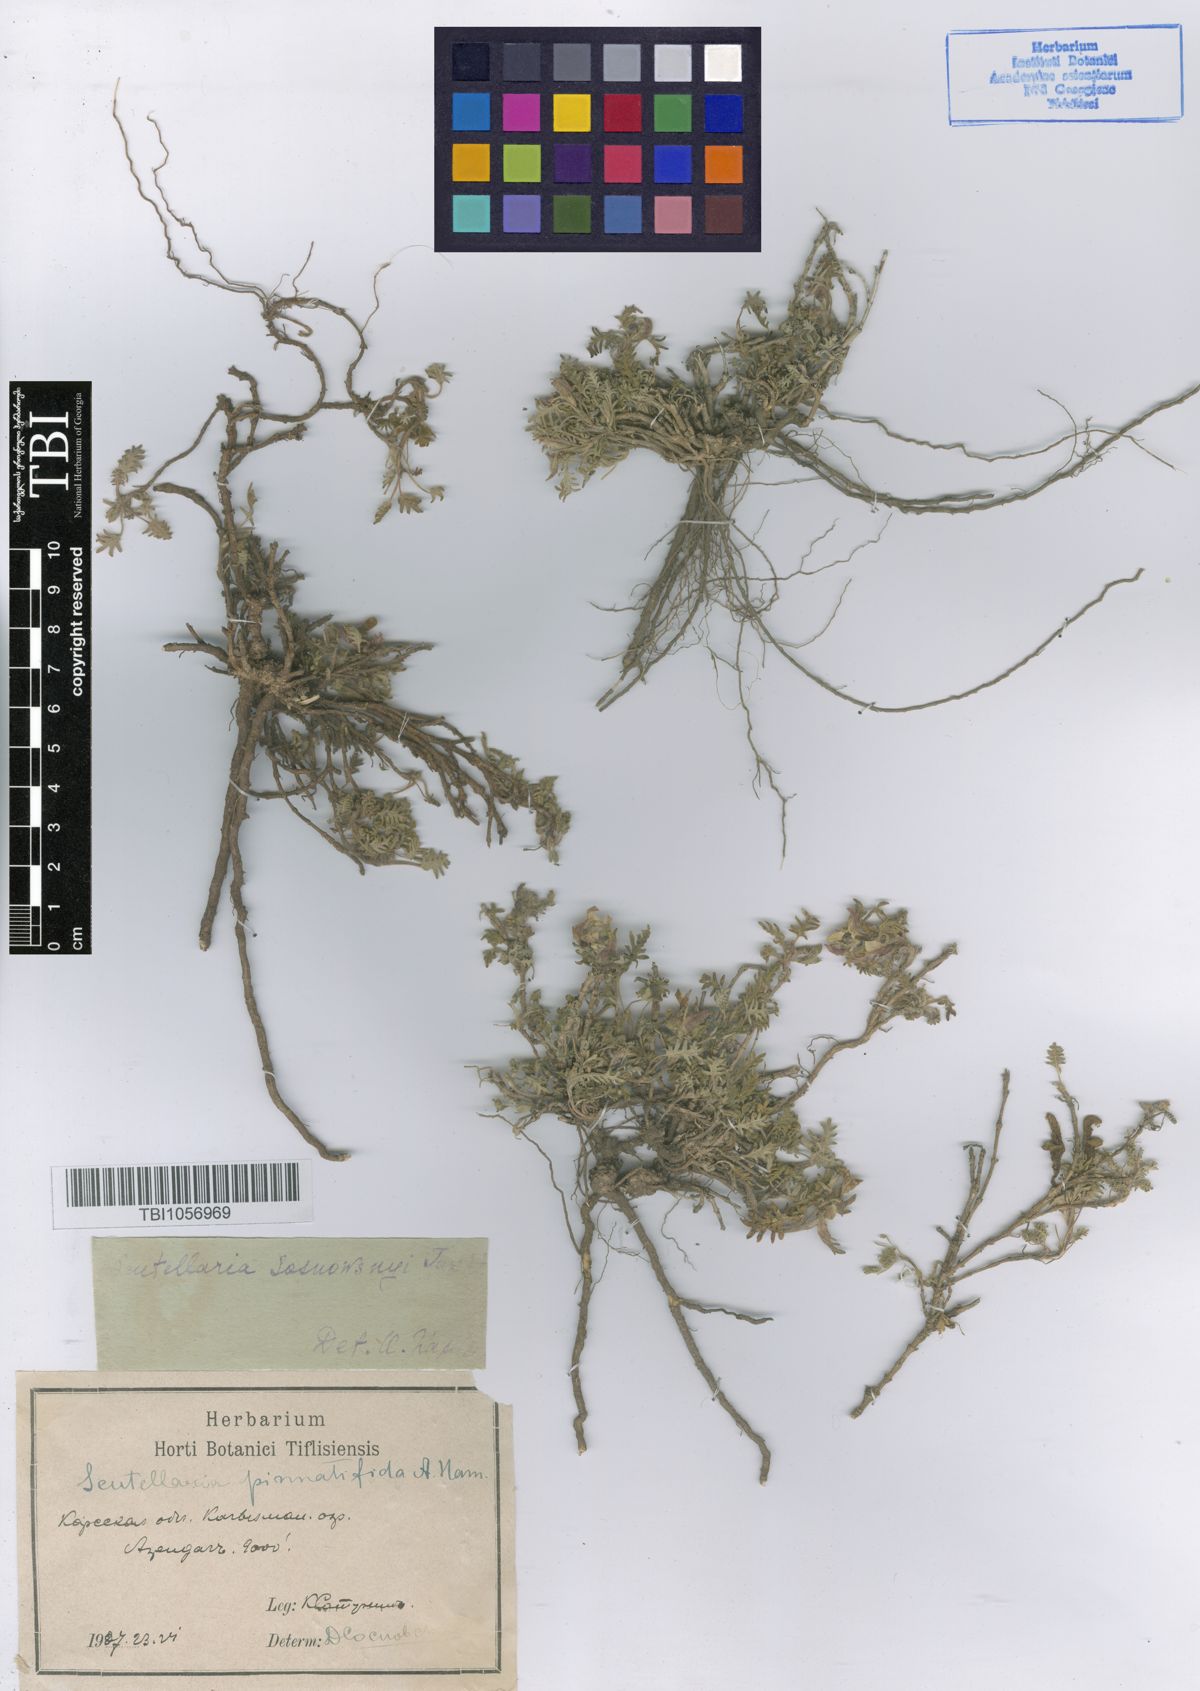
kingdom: Plantae
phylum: Tracheophyta
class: Magnoliopsida
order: Lamiales
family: Lamiaceae
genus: Scutellaria
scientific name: Scutellaria sosnowskyi
